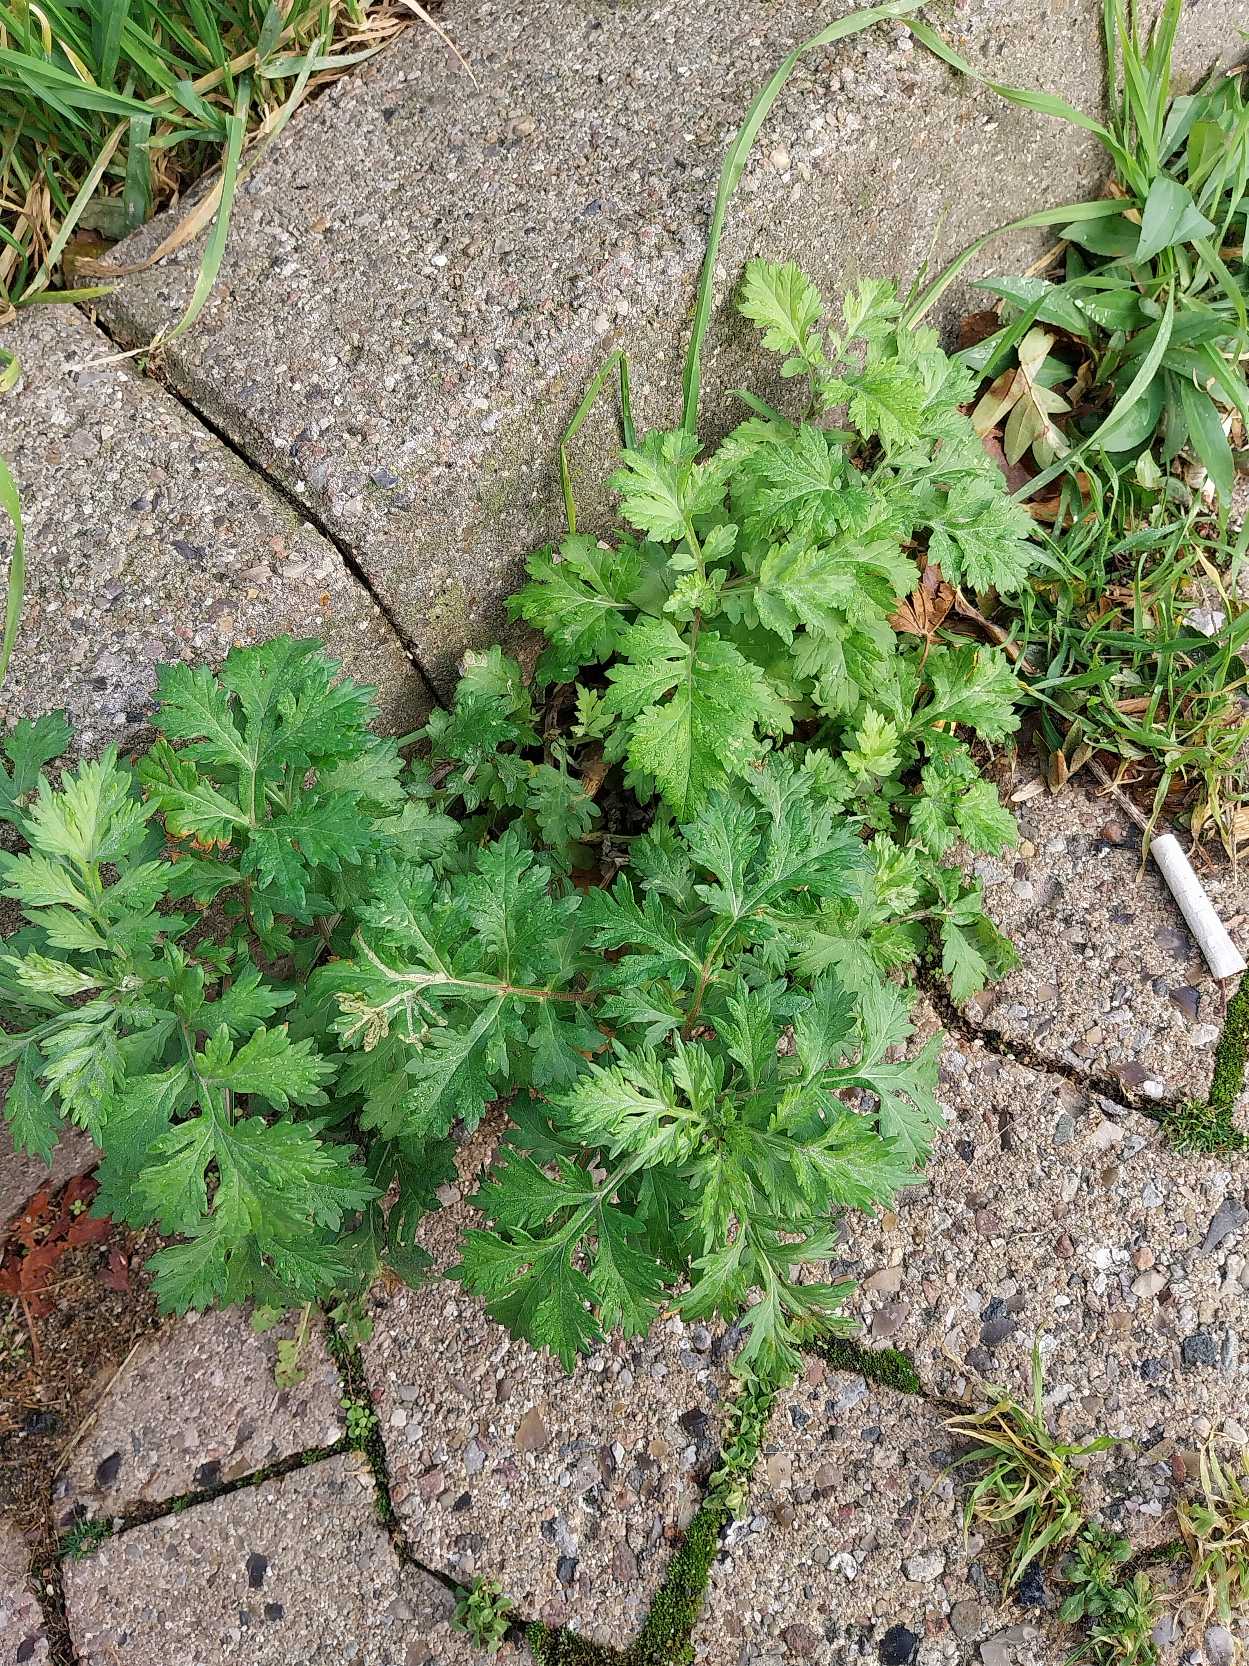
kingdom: Plantae
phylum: Tracheophyta
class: Magnoliopsida
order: Asterales
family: Asteraceae
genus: Artemisia
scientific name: Artemisia vulgaris
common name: Grå-bynke
